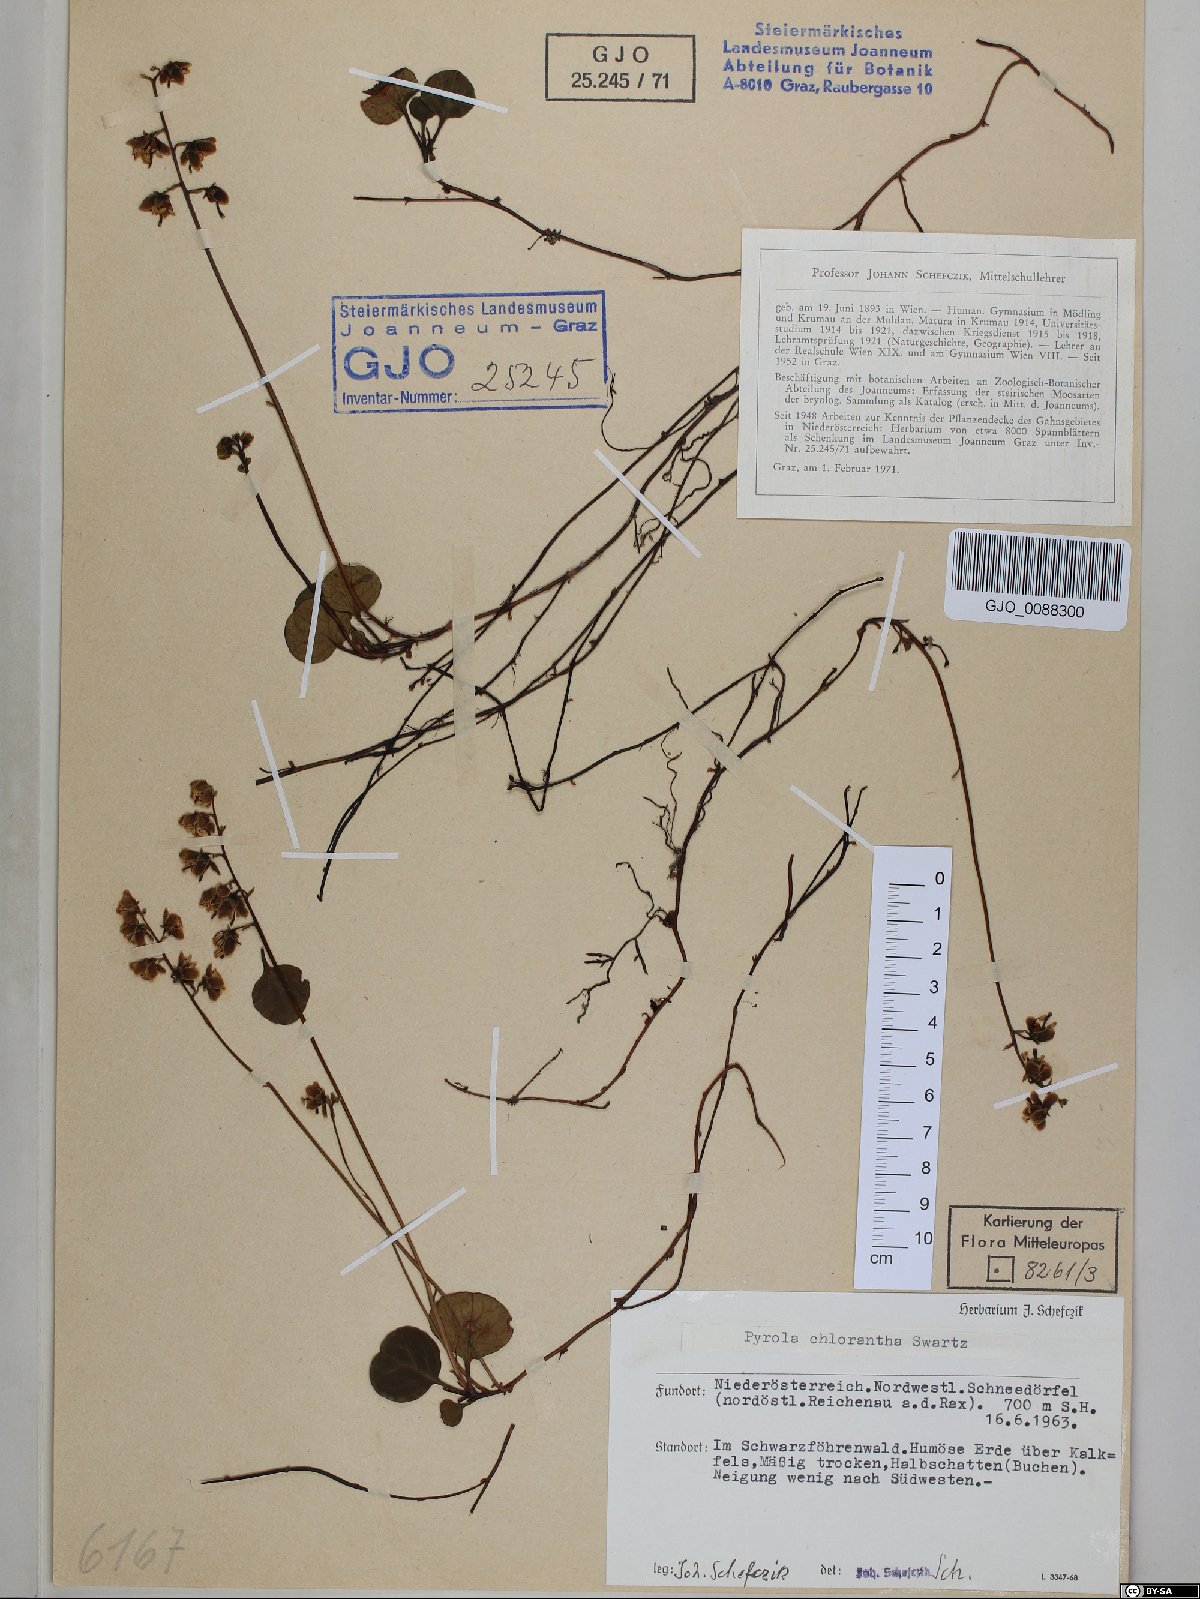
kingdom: Plantae
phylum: Tracheophyta
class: Magnoliopsida
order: Ericales
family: Ericaceae
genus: Pyrola
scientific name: Pyrola chlorantha
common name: Green wintergreen
